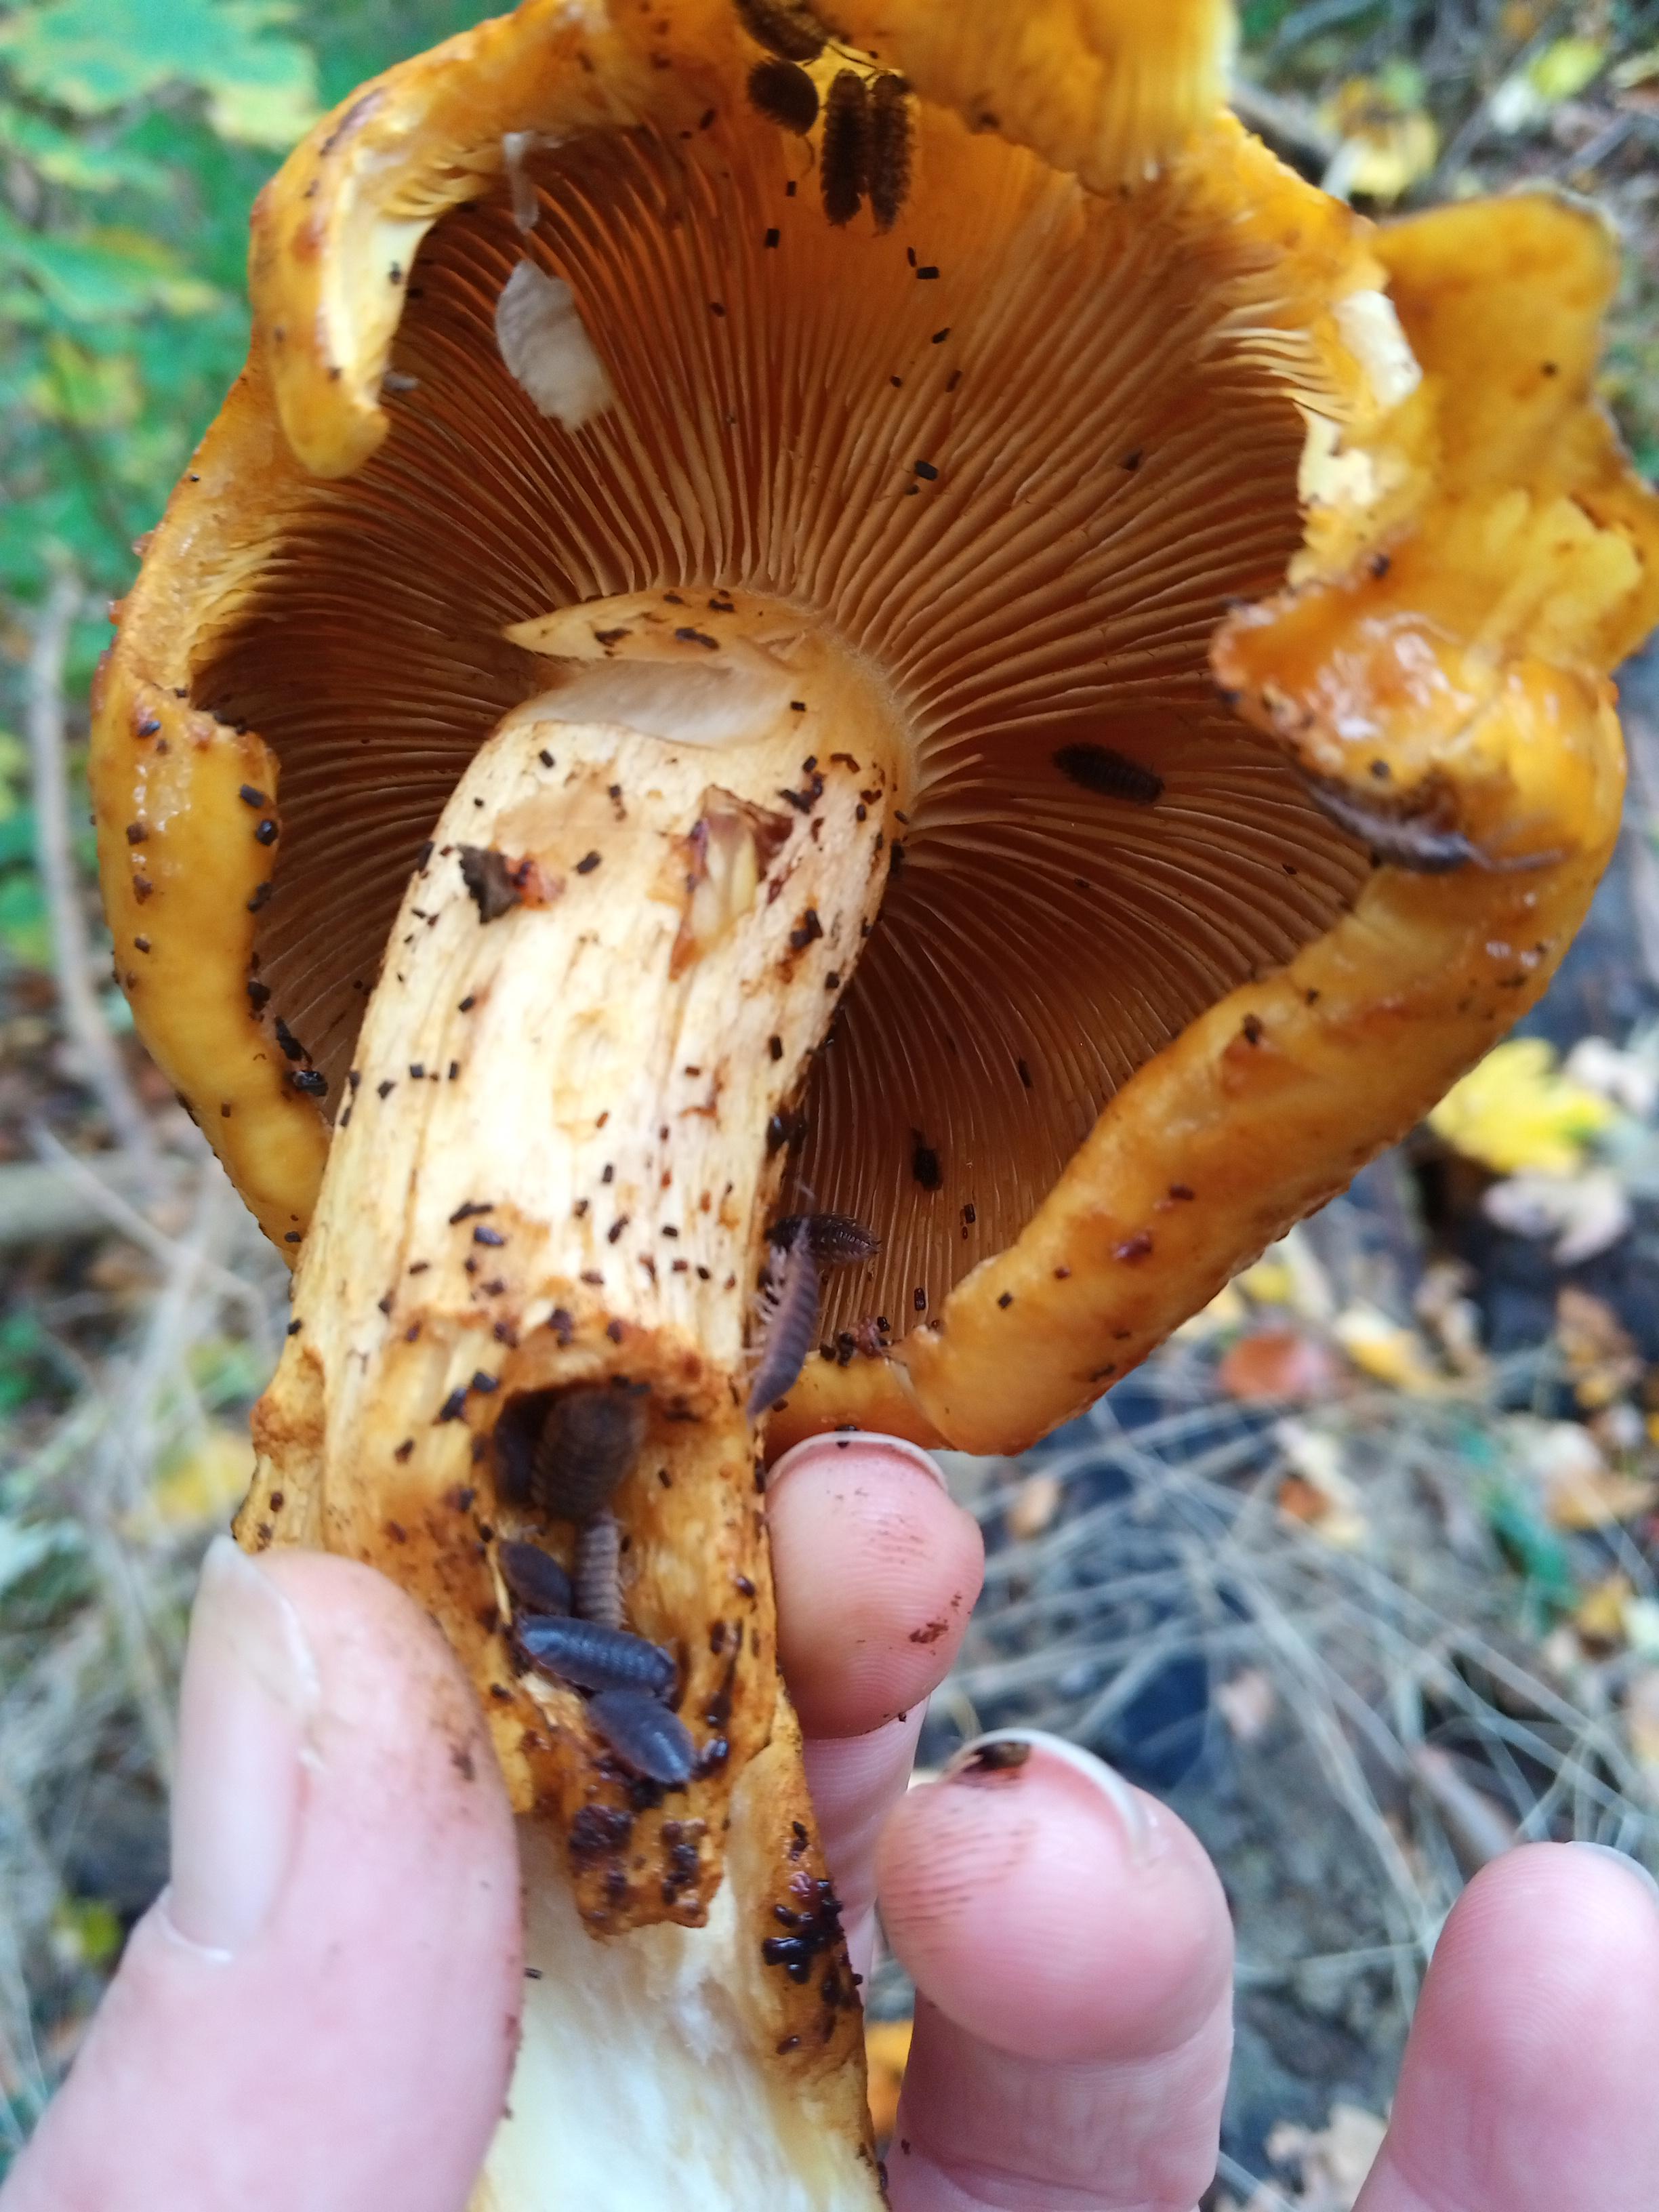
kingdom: Fungi
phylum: Basidiomycota
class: Agaricomycetes
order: Agaricales
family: Strophariaceae
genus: Pholiota
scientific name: Pholiota
